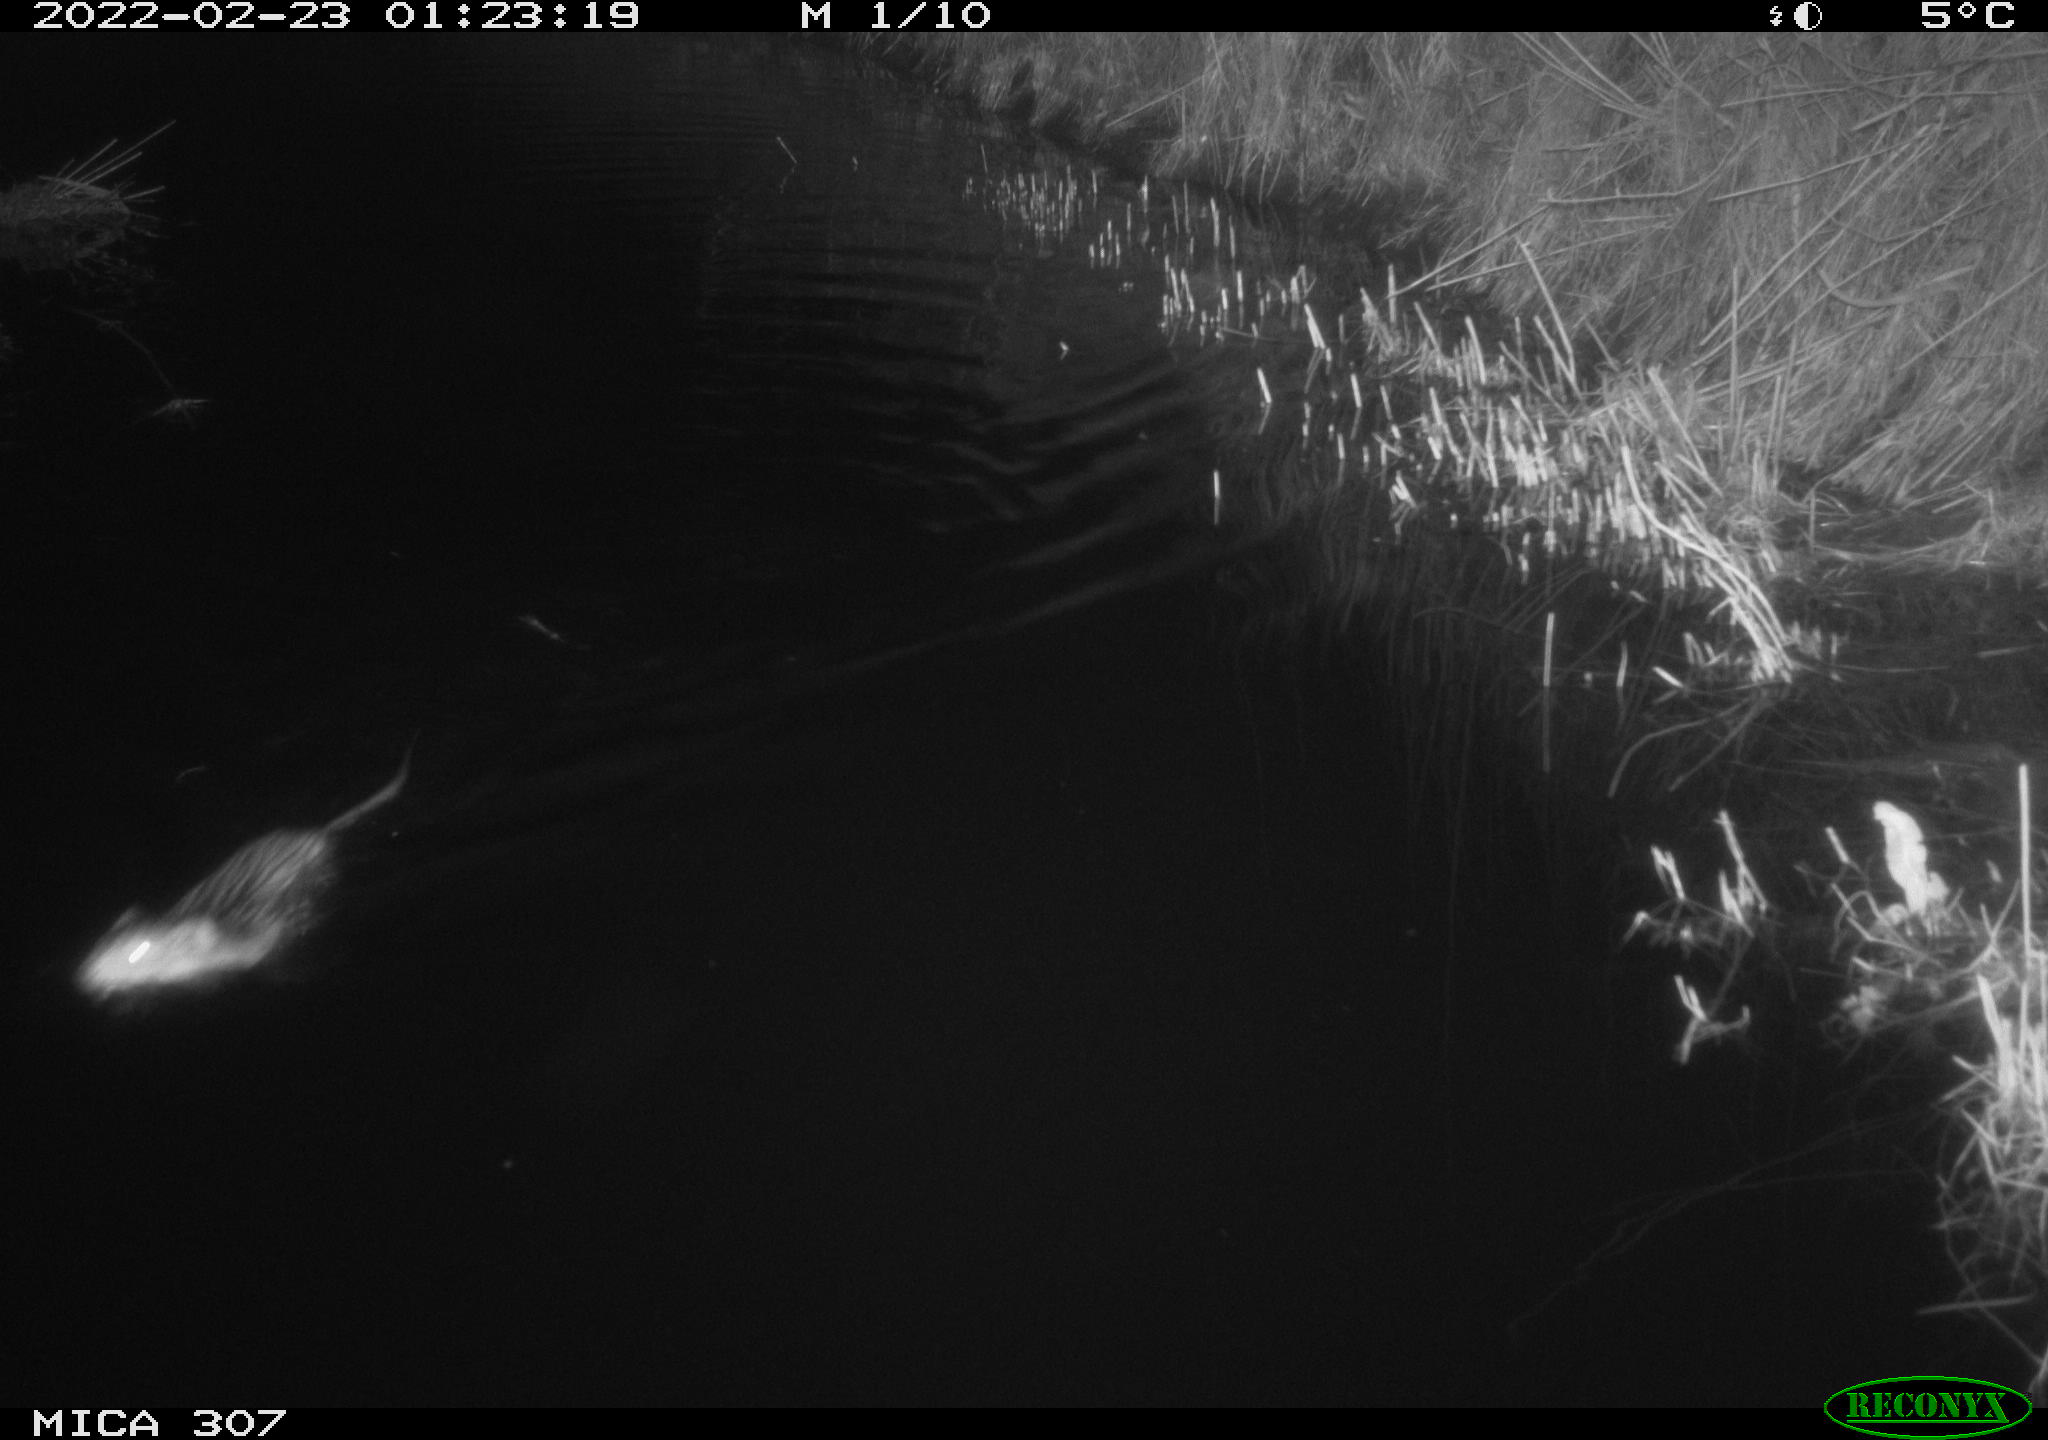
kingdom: Animalia
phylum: Chordata
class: Mammalia
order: Rodentia
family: Cricetidae
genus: Ondatra
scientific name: Ondatra zibethicus
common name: Muskrat
